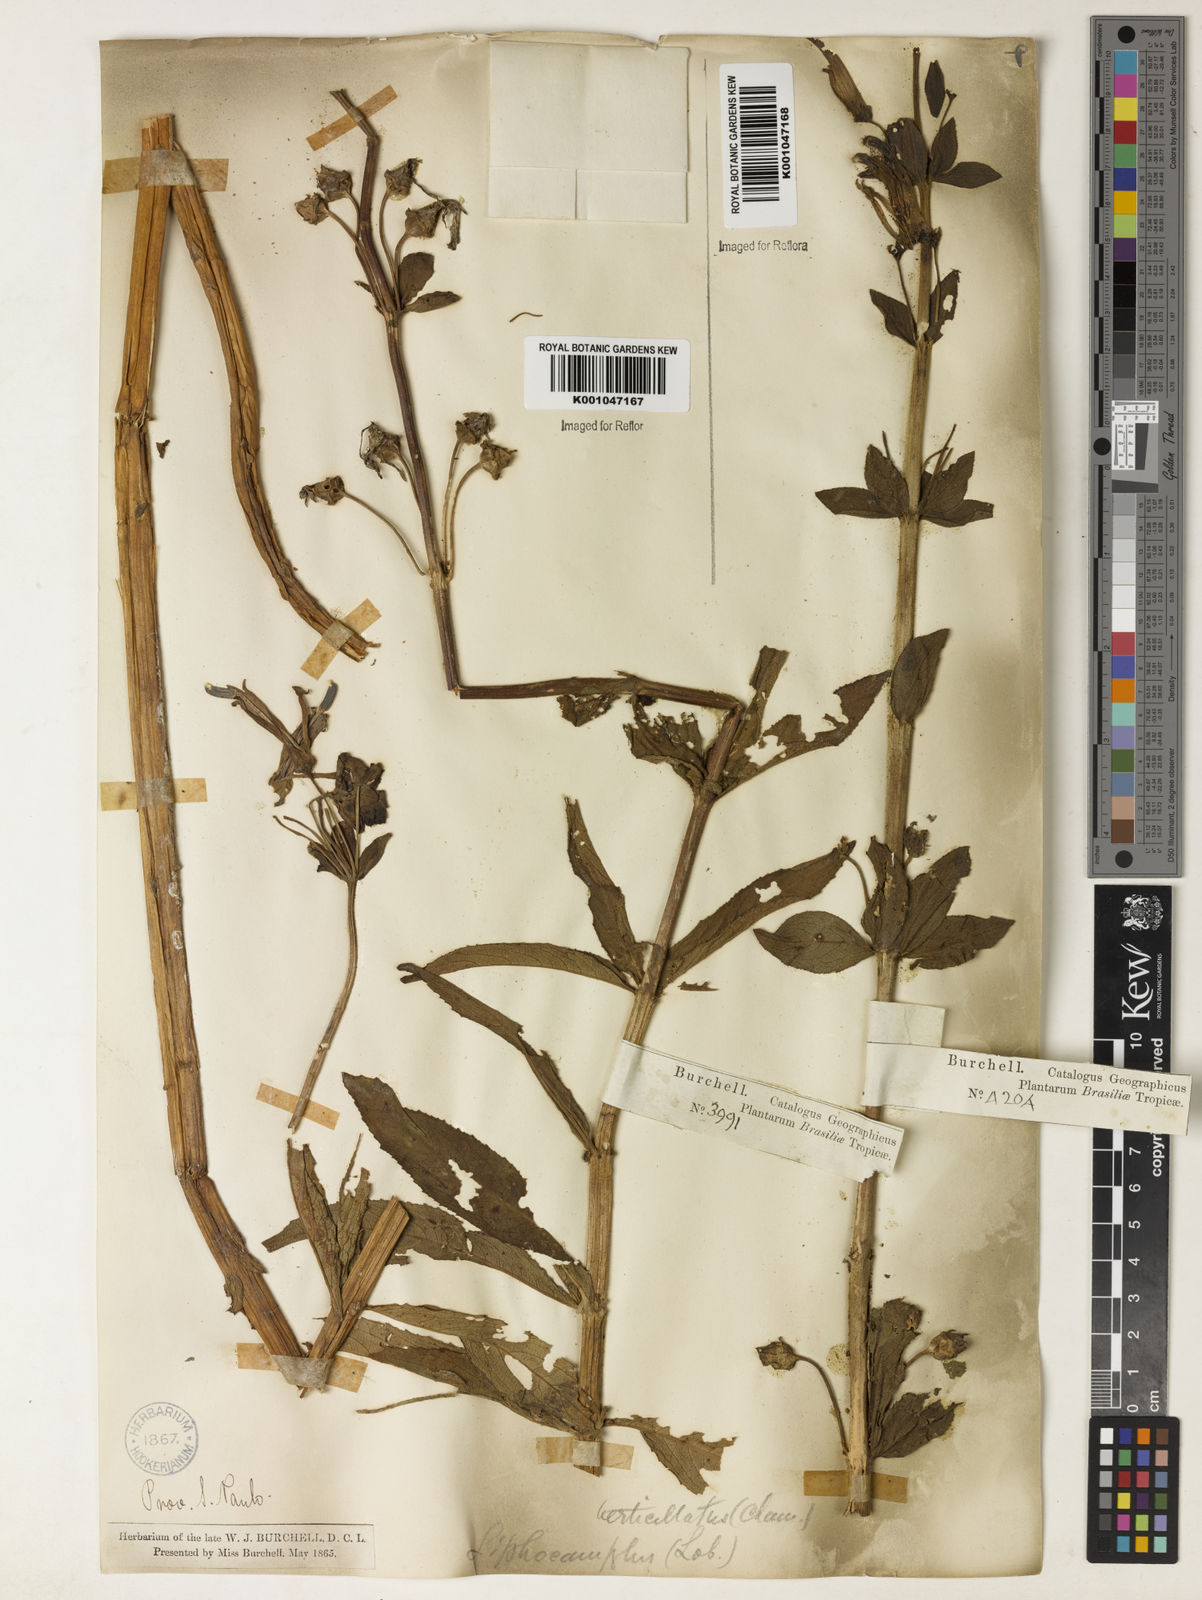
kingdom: Plantae
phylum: Tracheophyta
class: Magnoliopsida
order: Asterales
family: Campanulaceae
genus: Siphocampylus
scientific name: Siphocampylus verticillatus
